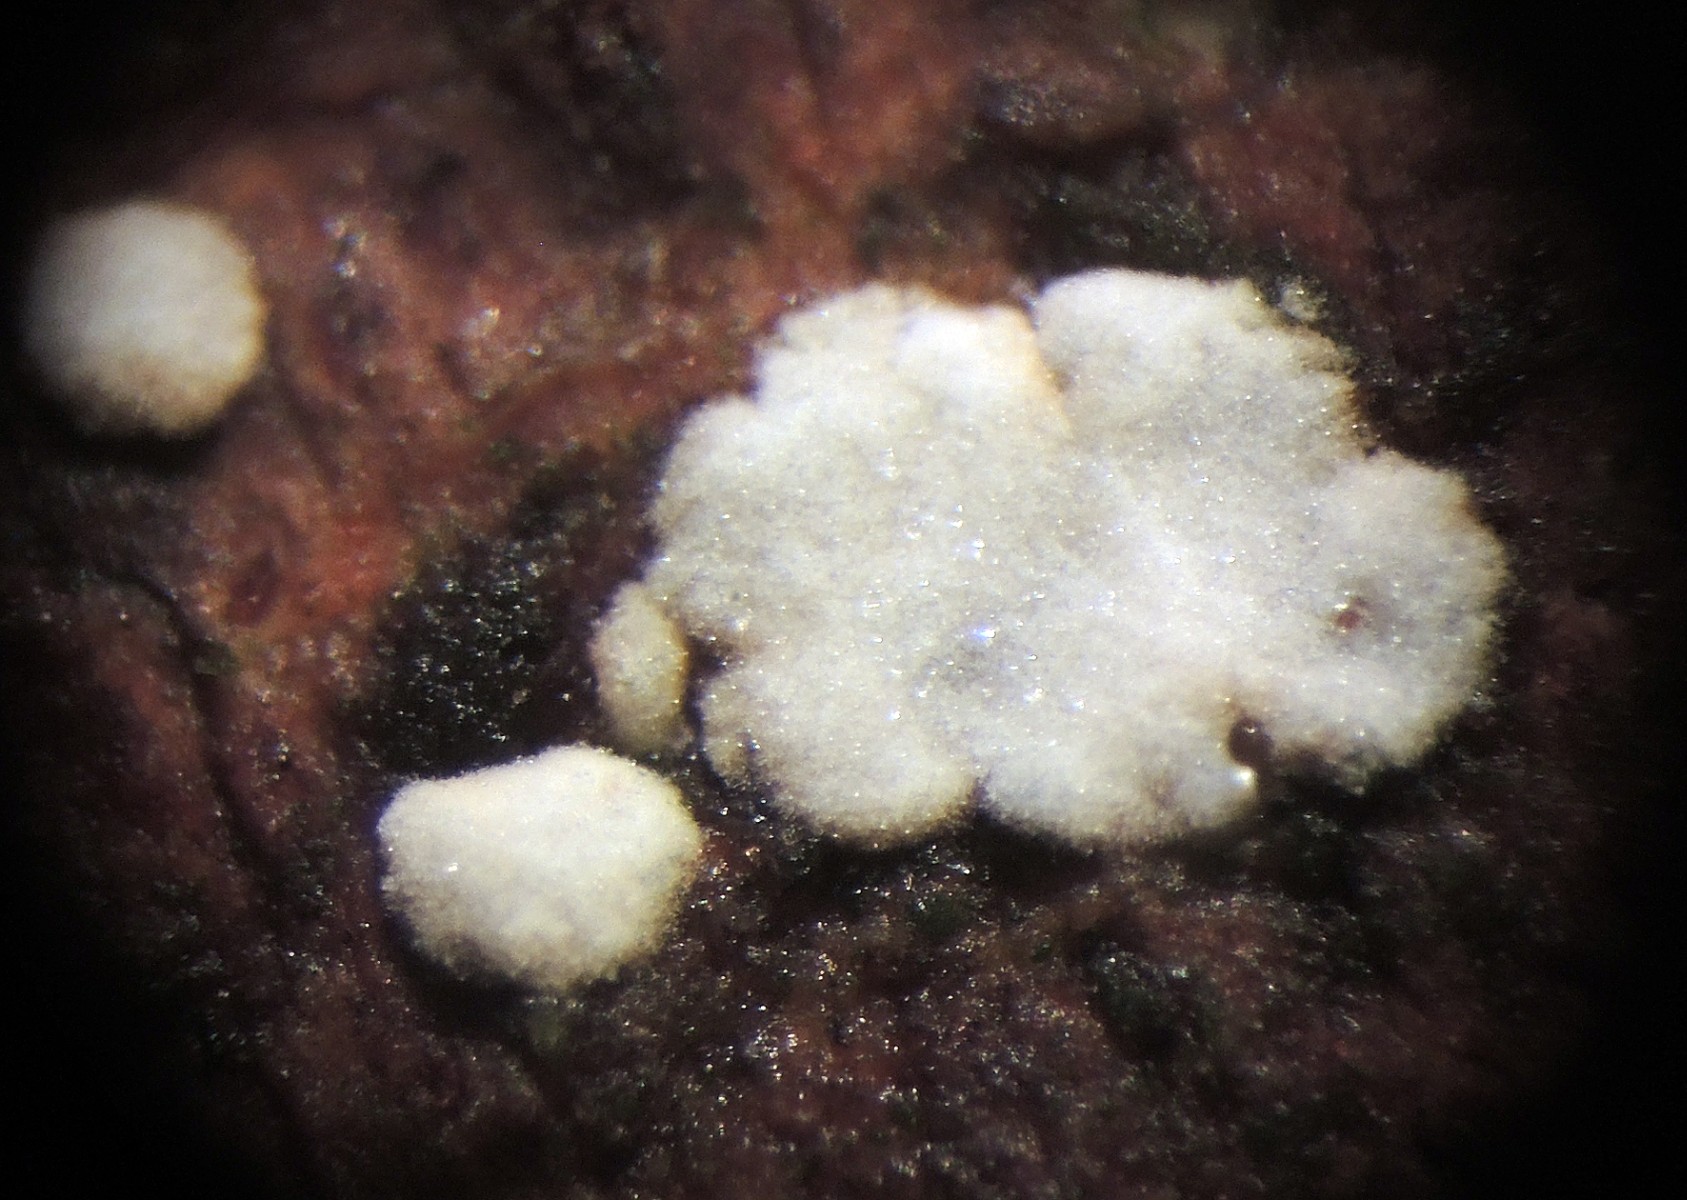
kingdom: Fungi
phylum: Basidiomycota
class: Agaricomycetes
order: Agaricales
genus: Dendrothele
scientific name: Dendrothele amygdalispora
